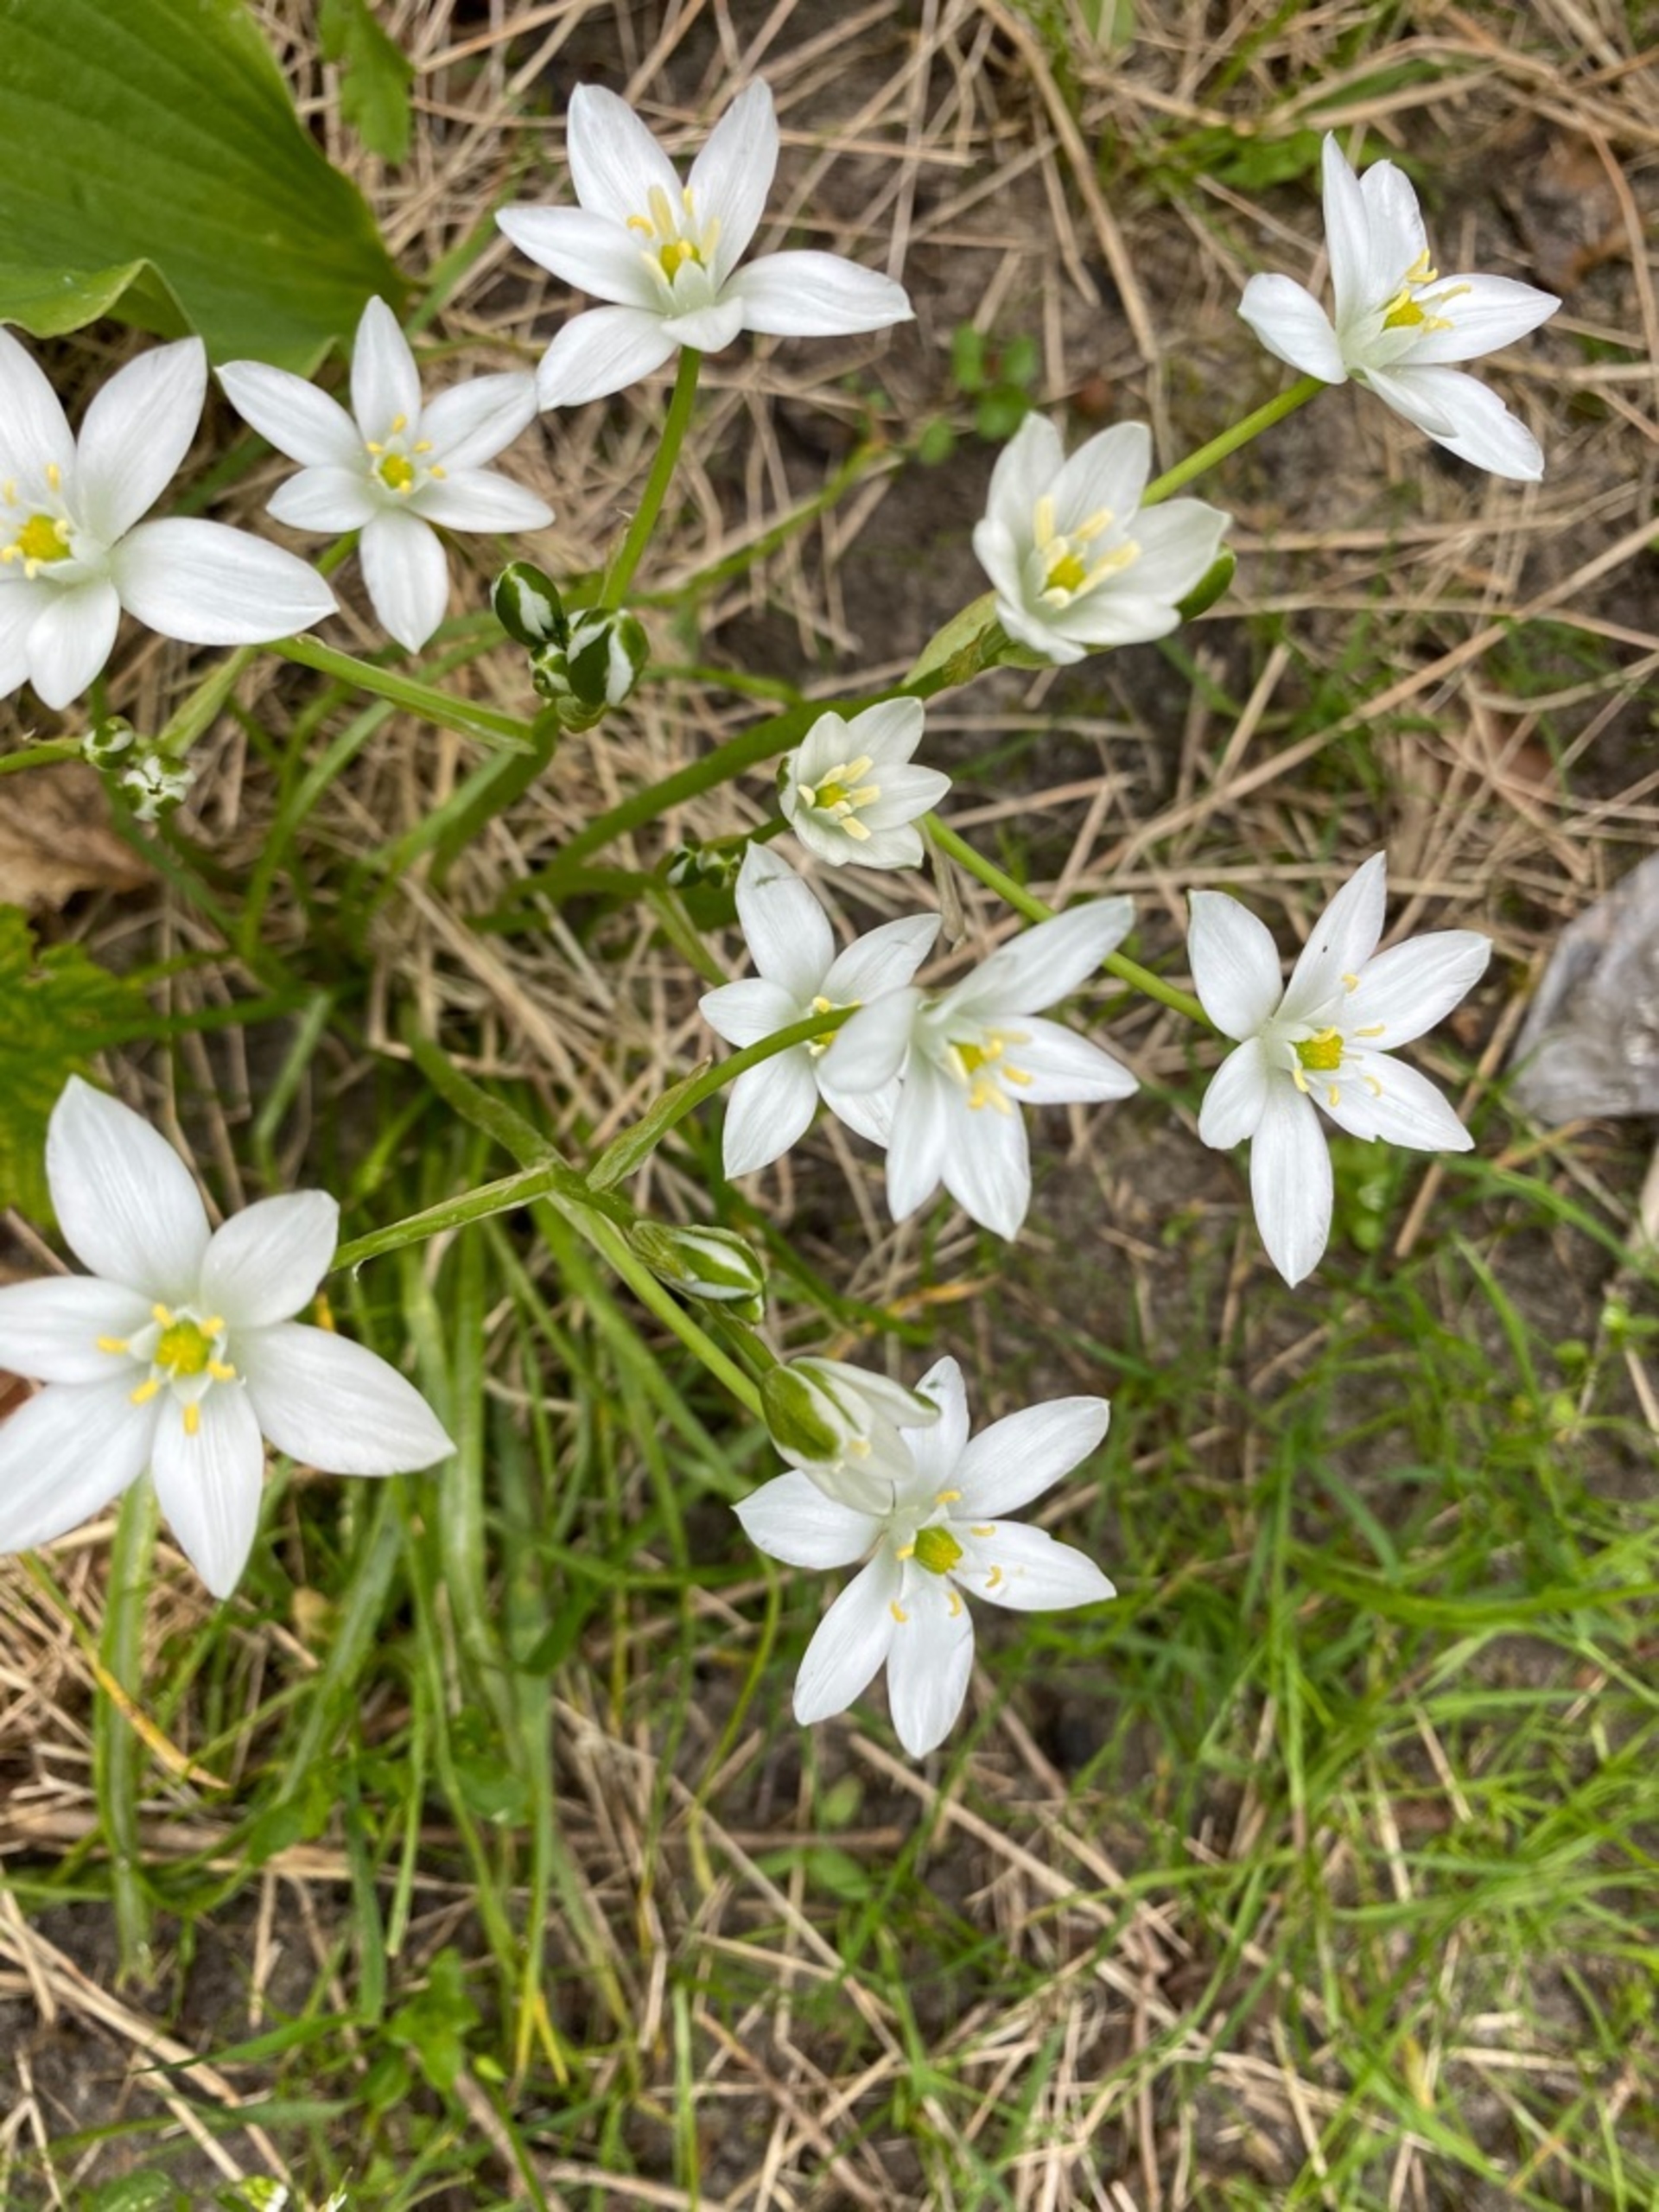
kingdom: Plantae
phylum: Tracheophyta
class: Liliopsida
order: Asparagales
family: Asparagaceae
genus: Ornithogalum
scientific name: Ornithogalum umbellatum
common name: Kost-fuglemælk
